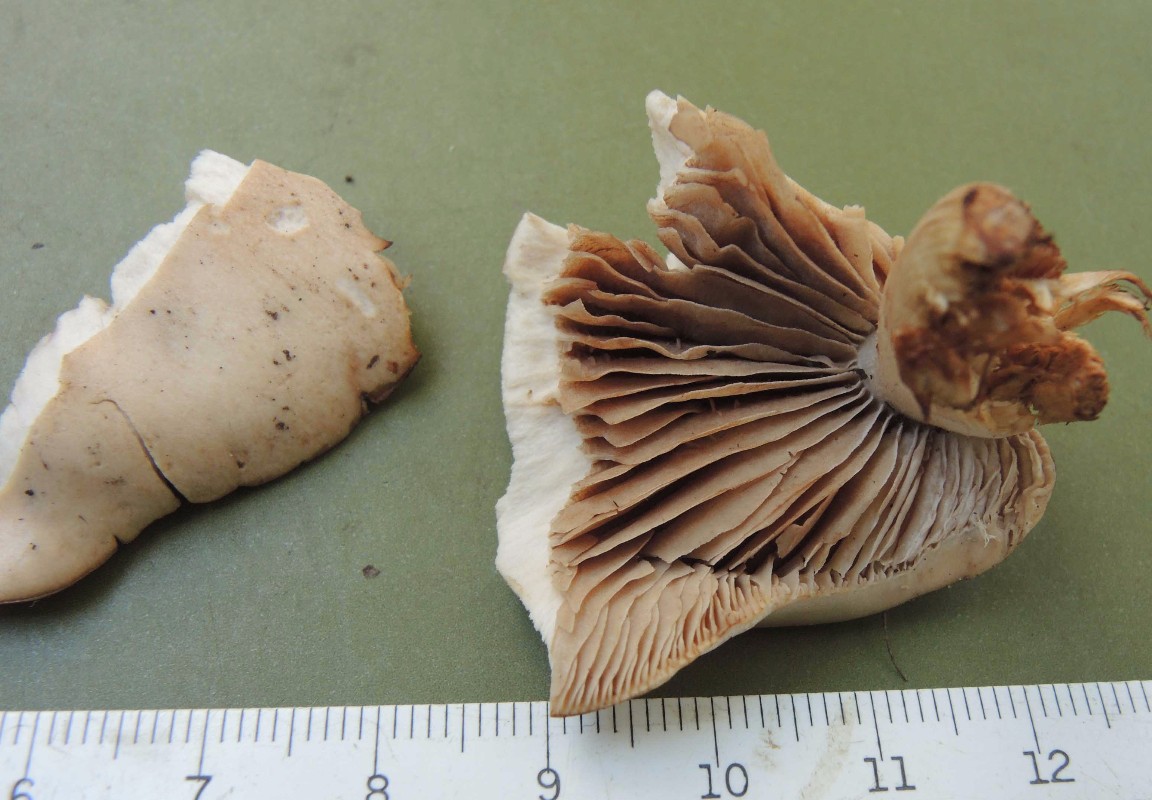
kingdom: Fungi
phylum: Basidiomycota
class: Agaricomycetes
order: Agaricales
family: Hymenogastraceae
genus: Hebeloma
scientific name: Hebeloma nauseosum
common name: storsporet tåreblad
